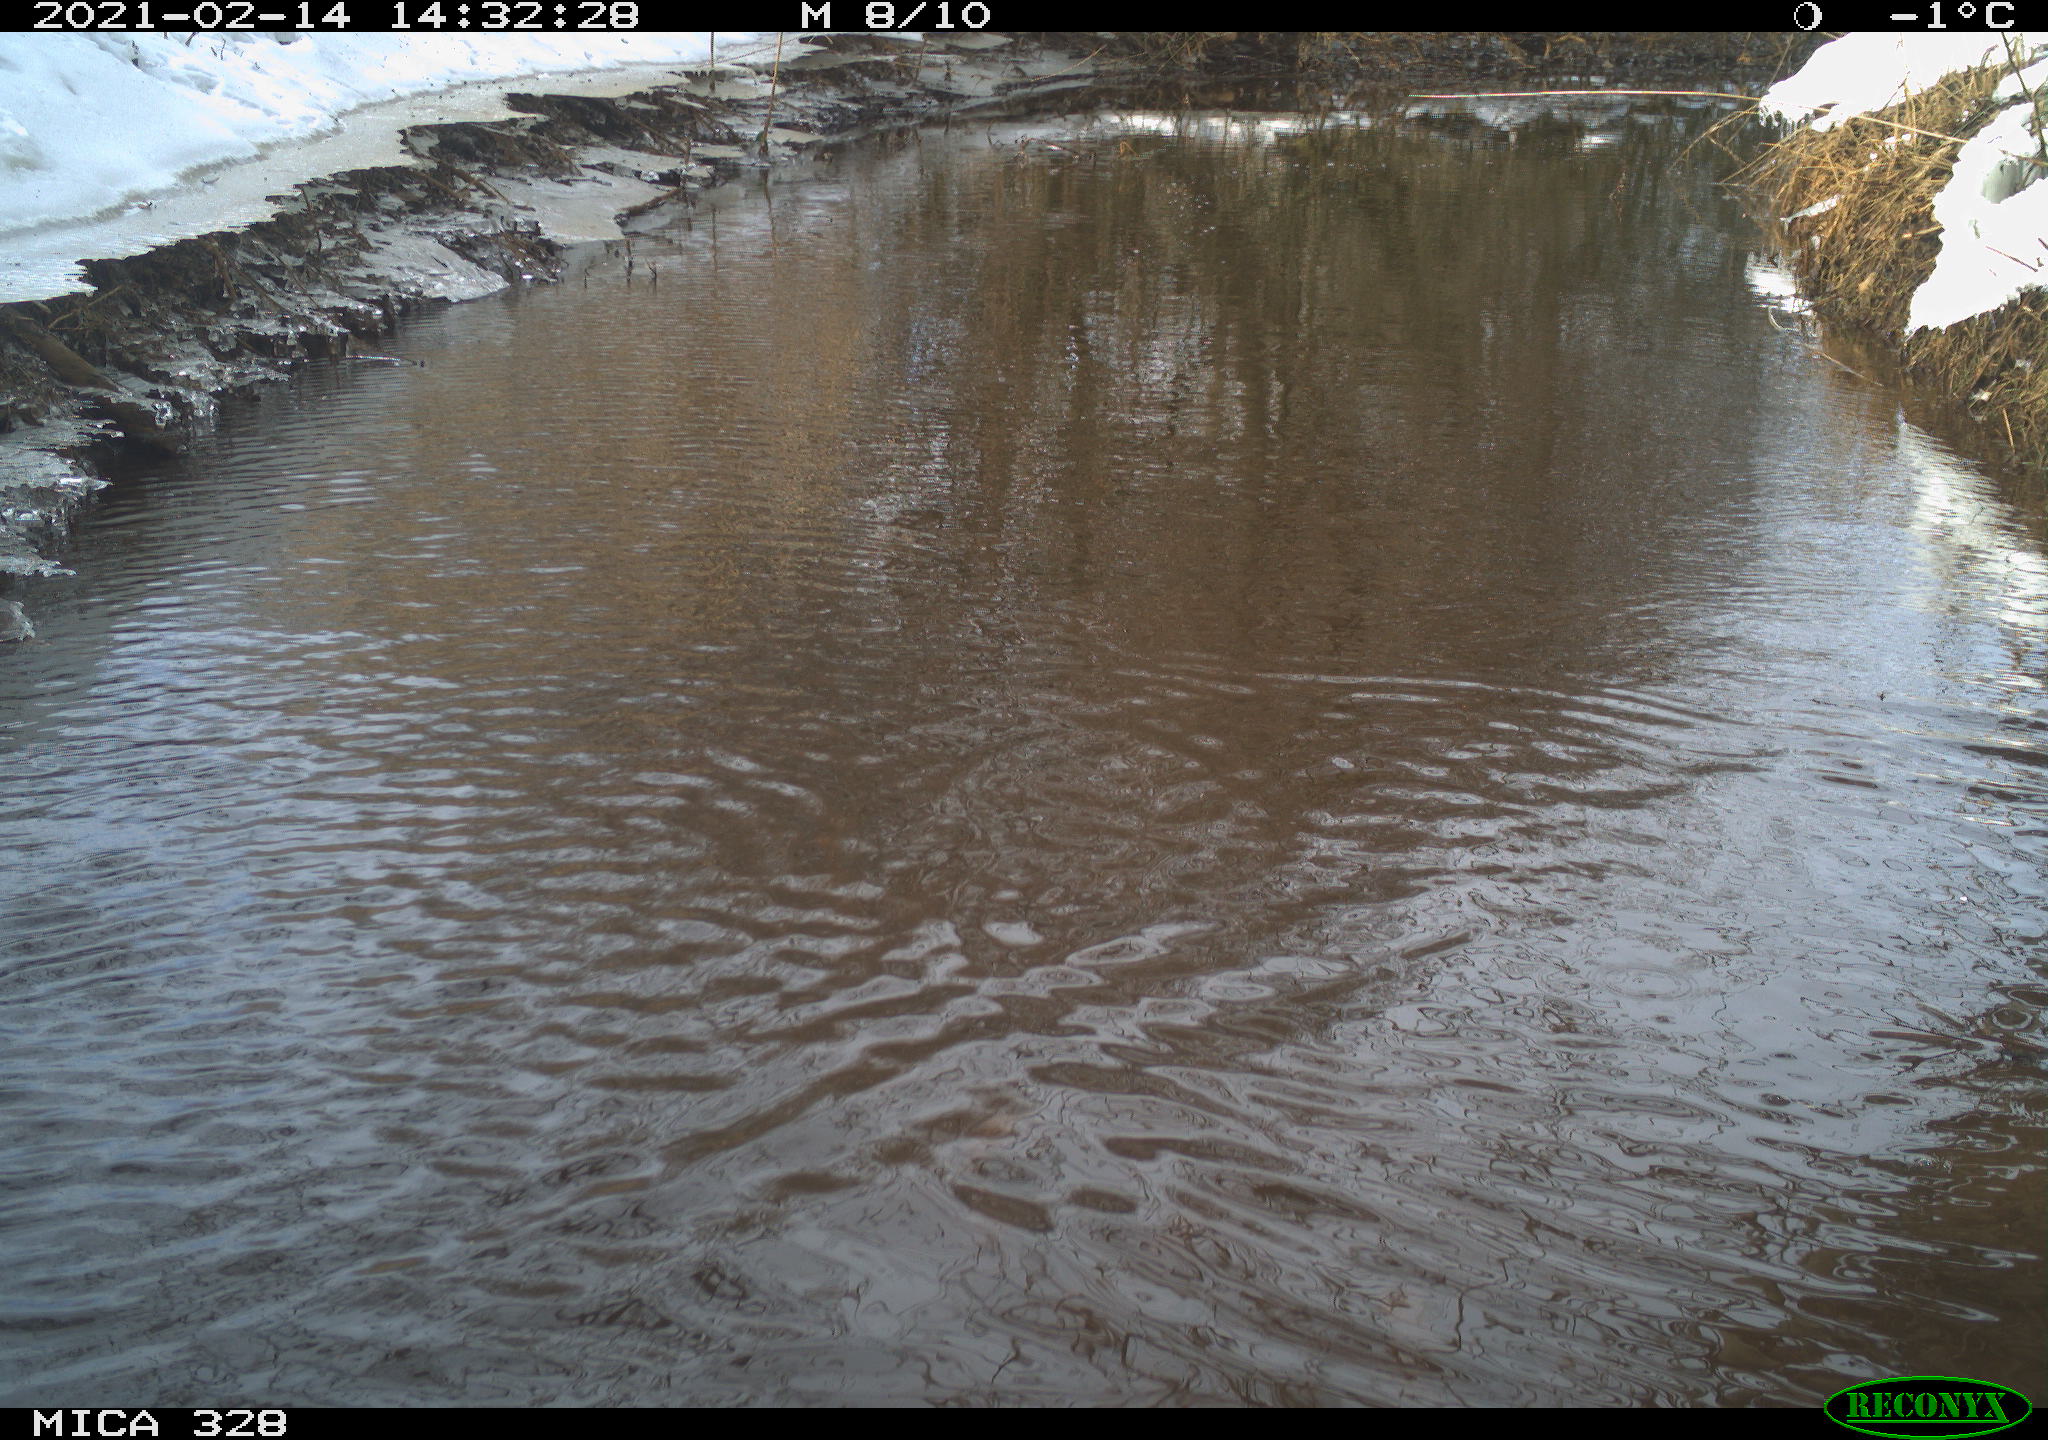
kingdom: Animalia
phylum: Chordata
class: Aves
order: Pelecaniformes
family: Ardeidae
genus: Ardea
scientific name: Ardea cinerea
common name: Grey heron
